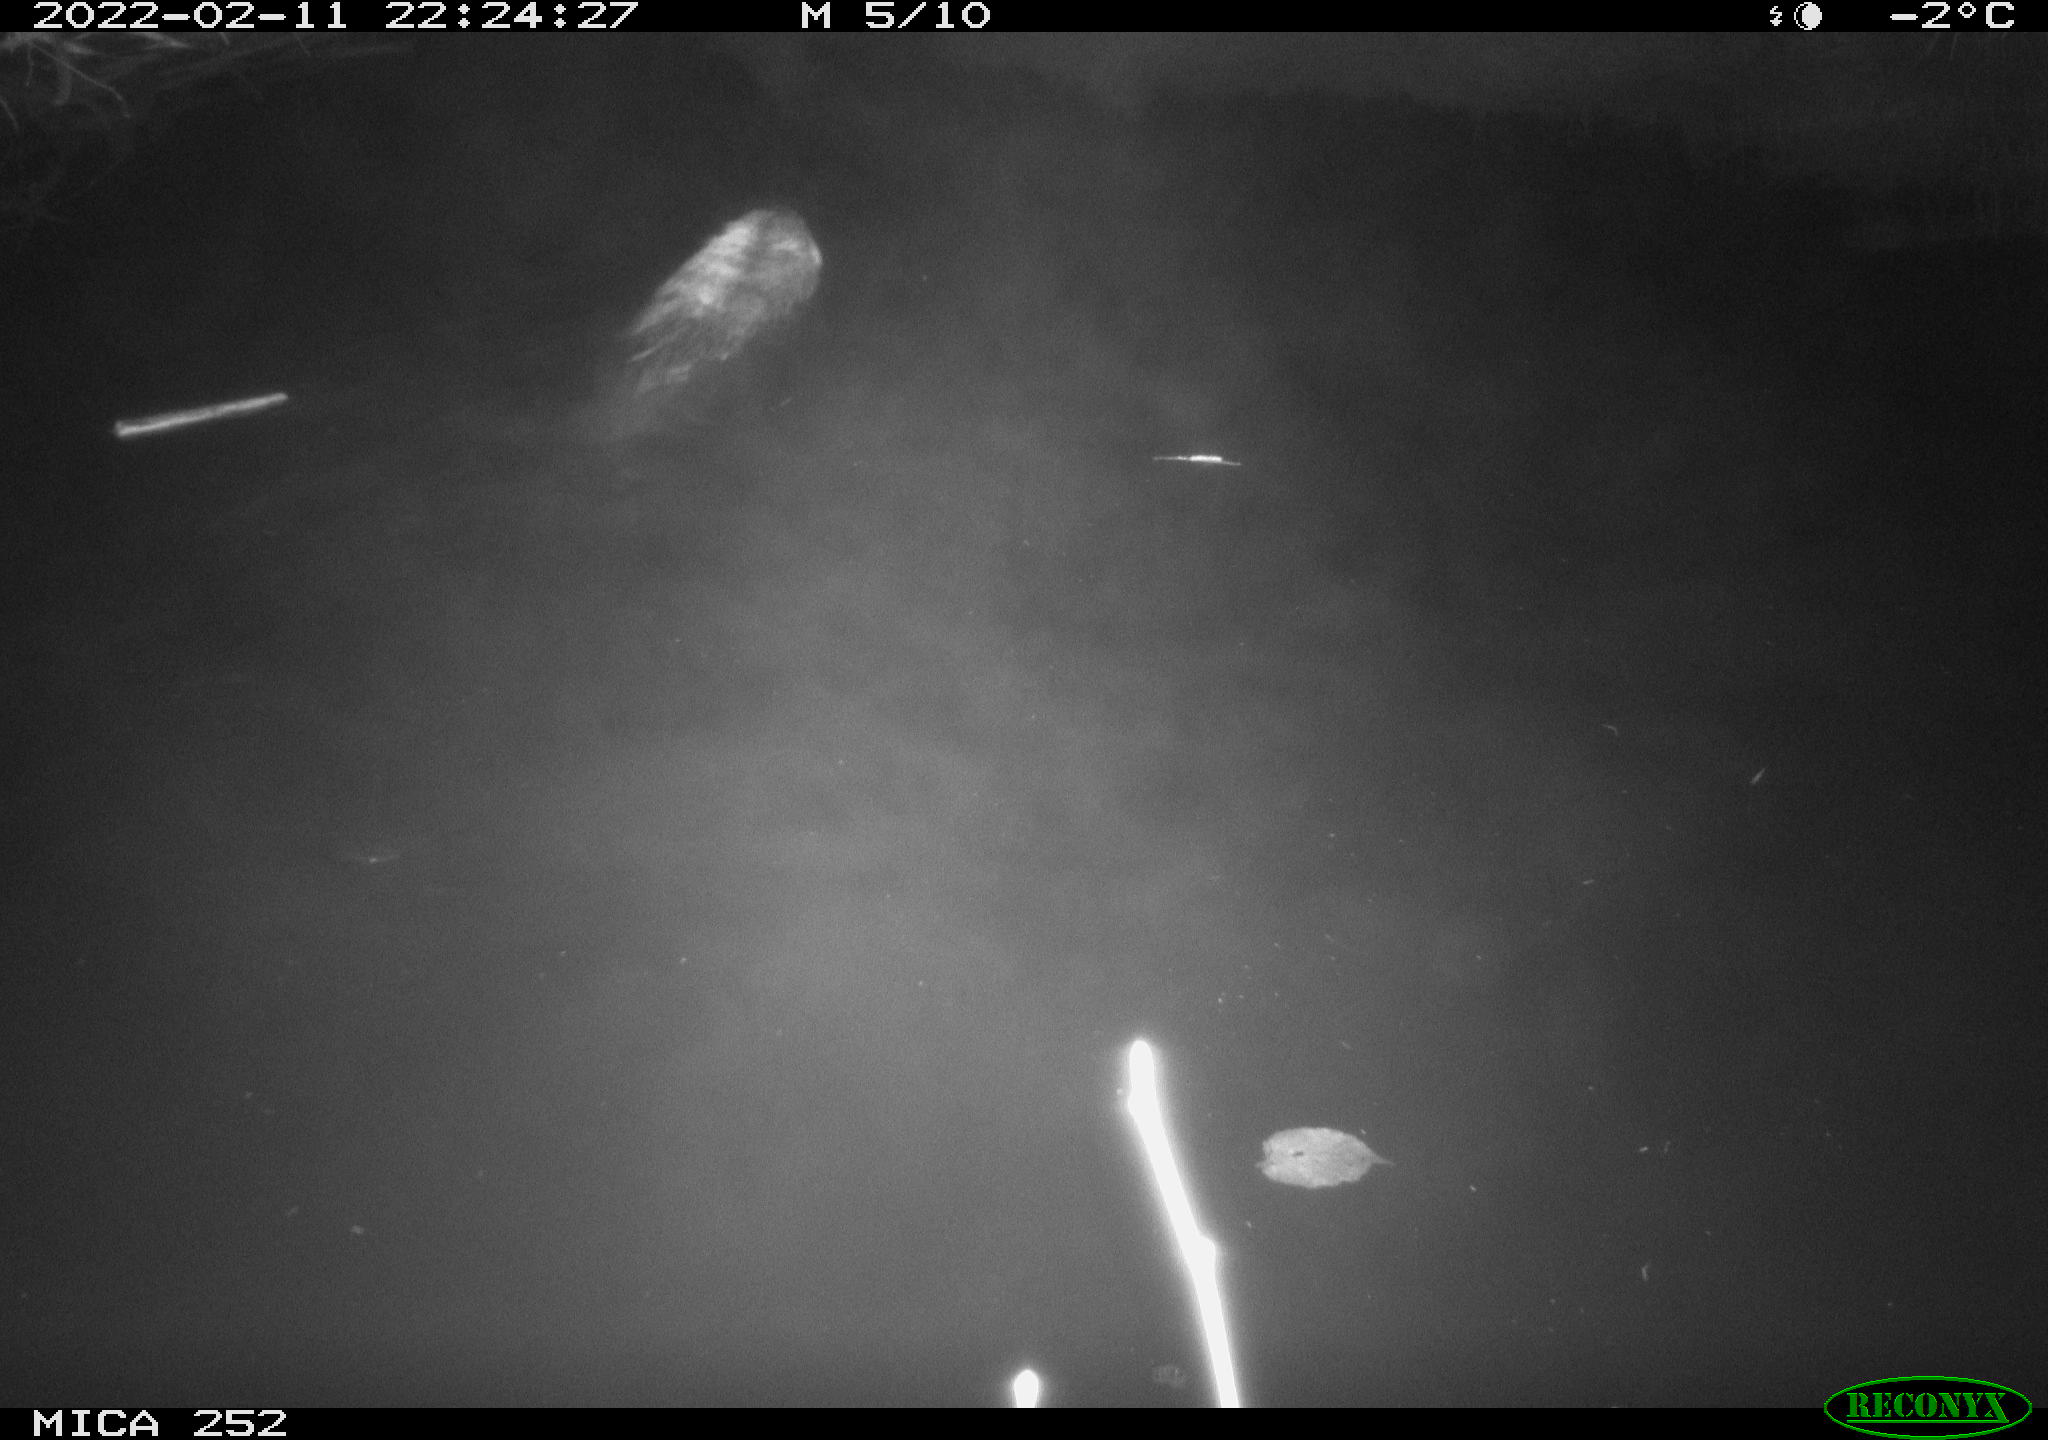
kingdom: Animalia
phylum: Chordata
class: Mammalia
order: Rodentia
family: Castoridae
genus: Castor
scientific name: Castor fiber
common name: Eurasian beaver
